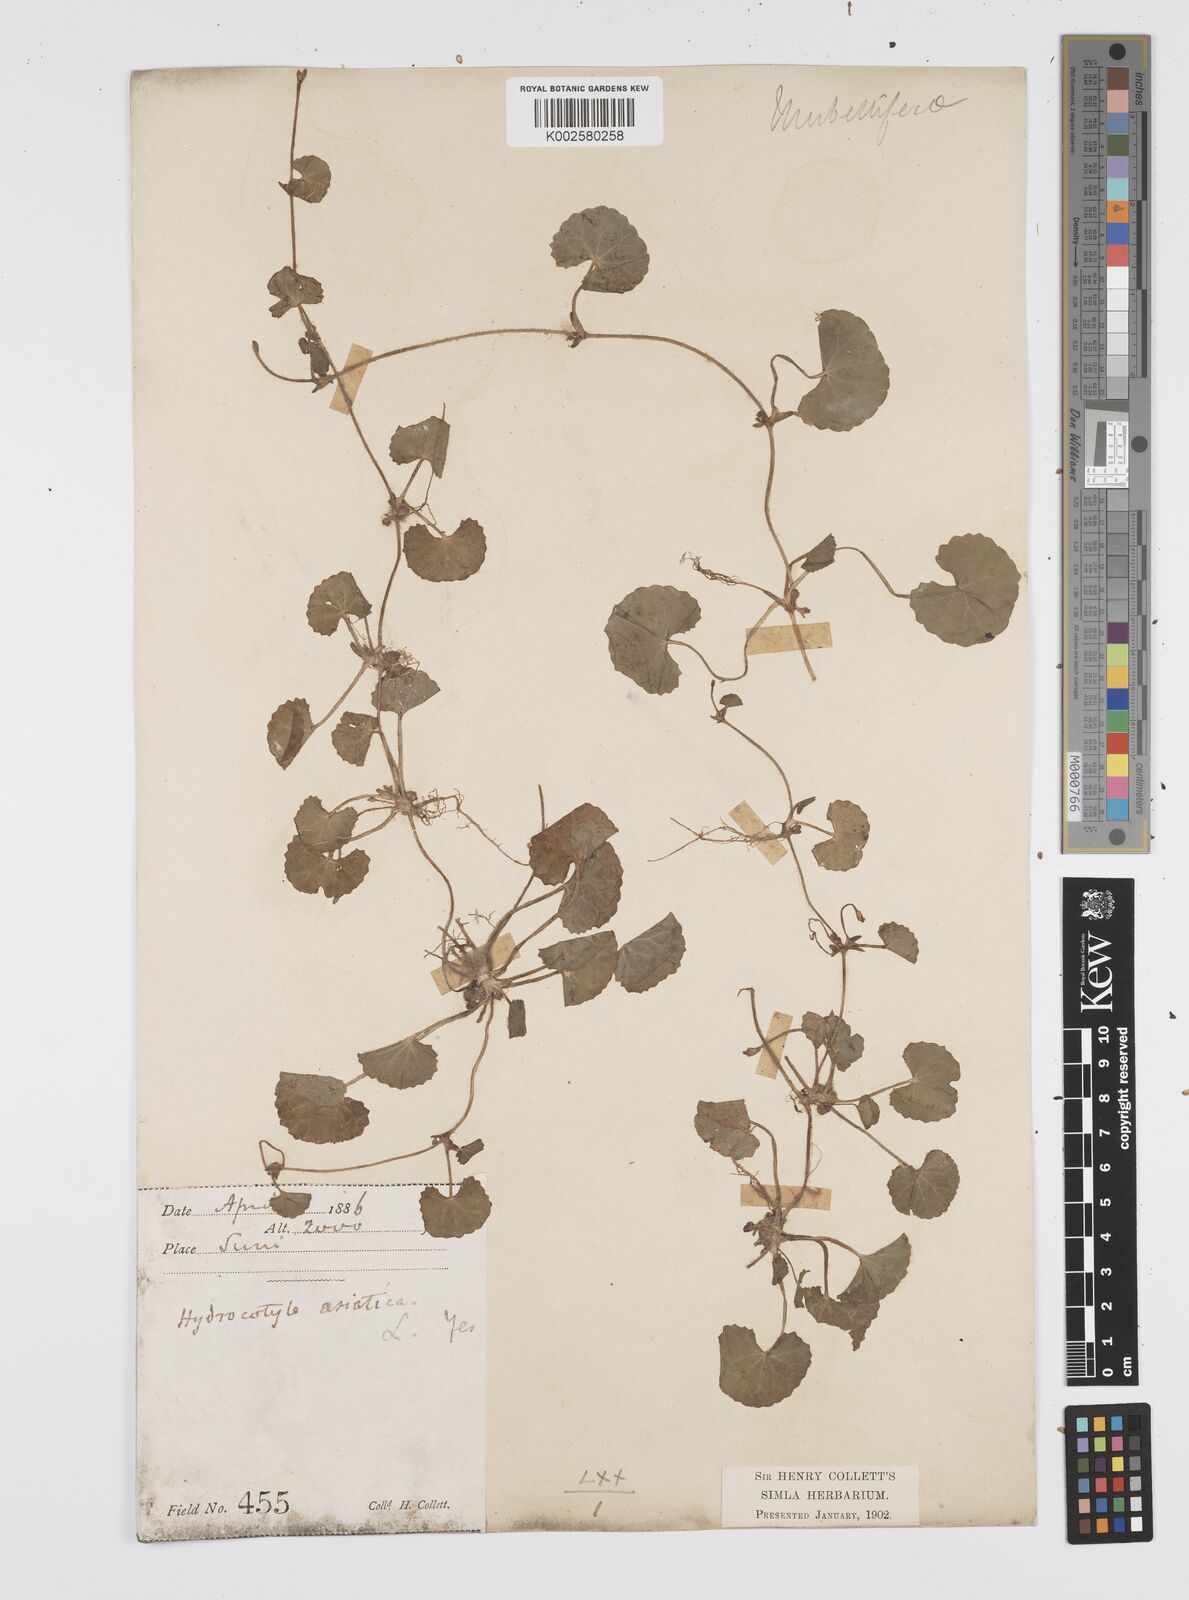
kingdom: Plantae
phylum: Tracheophyta
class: Magnoliopsida
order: Apiales
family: Apiaceae
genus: Centella
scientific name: Centella asiatica
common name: Spadeleaf
